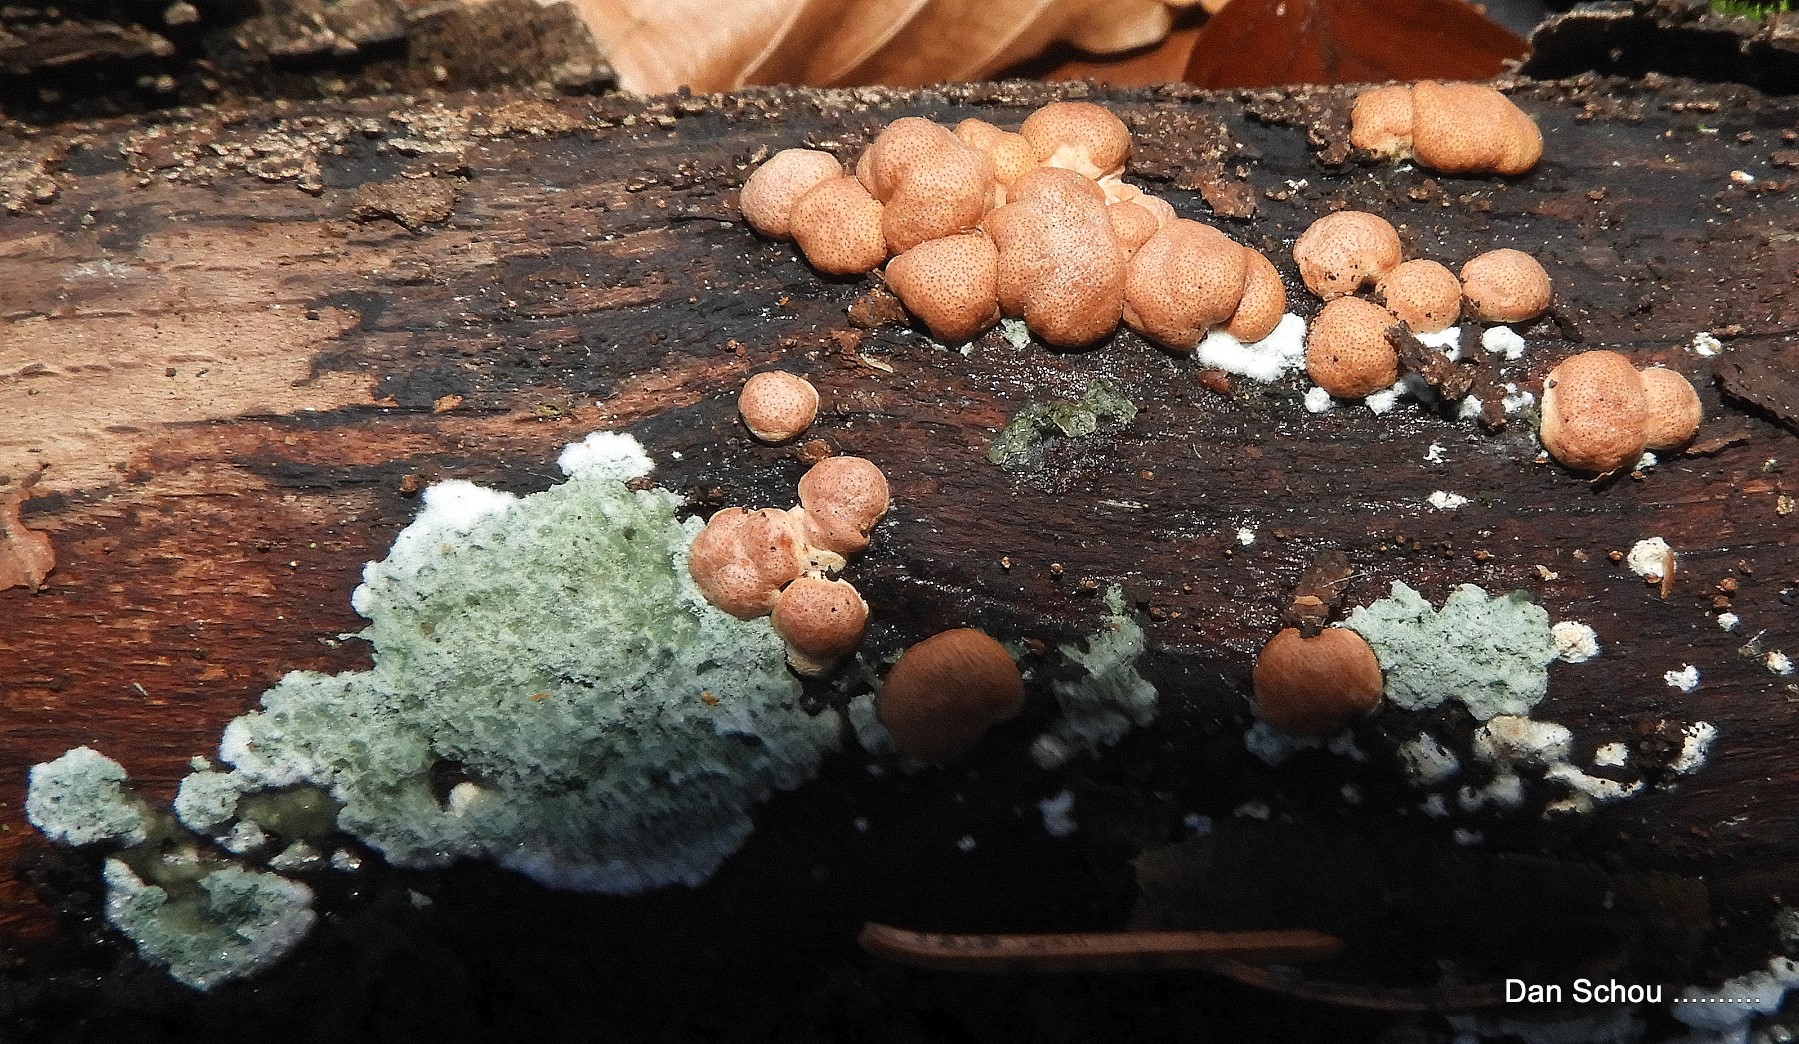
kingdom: Fungi
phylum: Ascomycota
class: Sordariomycetes
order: Hypocreales
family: Hypocreaceae
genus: Trichoderma
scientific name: Trichoderma europaeum
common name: rosabrun kødkerne
